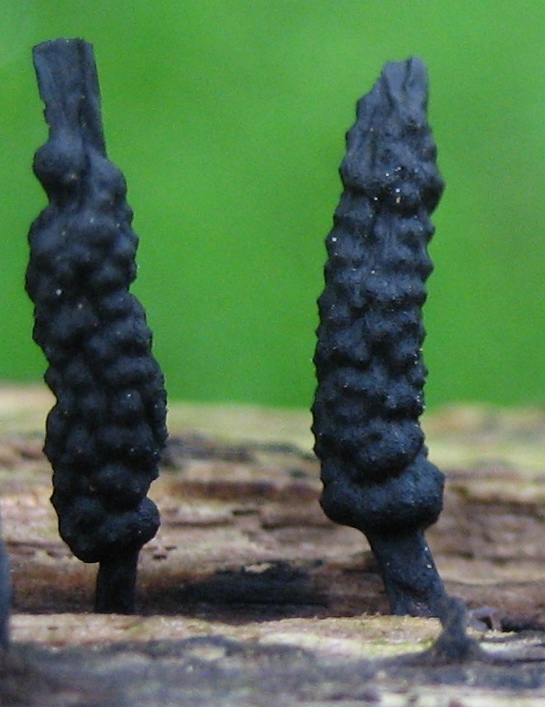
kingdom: Fungi
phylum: Ascomycota
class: Sordariomycetes
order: Xylariales
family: Xylariaceae
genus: Xylaria
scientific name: Xylaria hypoxylon
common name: grenet stødsvamp
